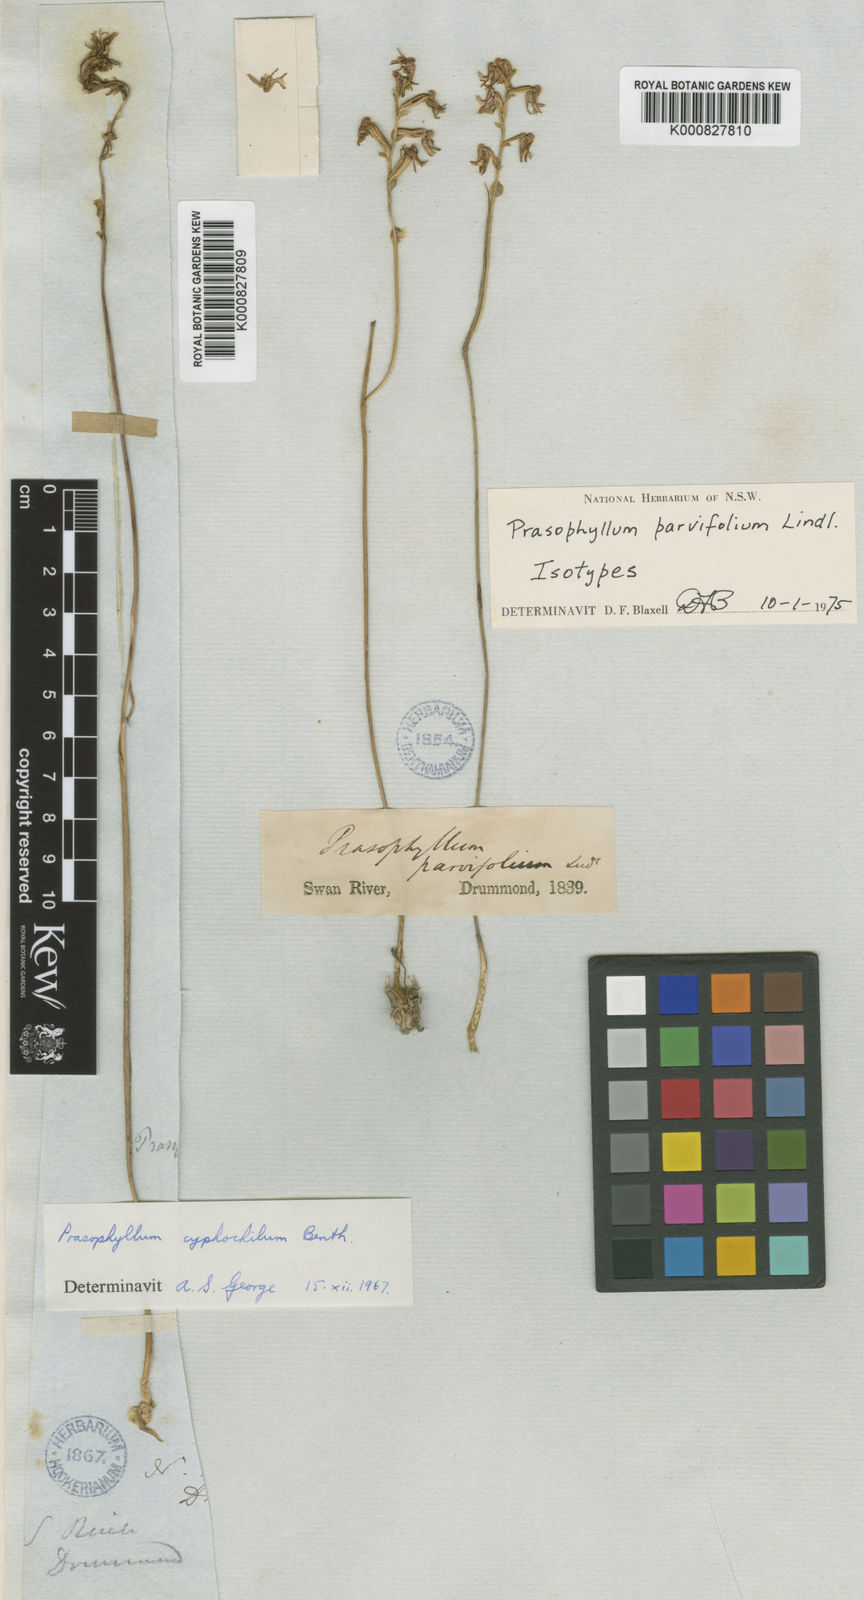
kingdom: Plantae
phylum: Tracheophyta
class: Liliopsida
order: Asparagales
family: Orchidaceae
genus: Prasophyllum
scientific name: Prasophyllum parvifolium
